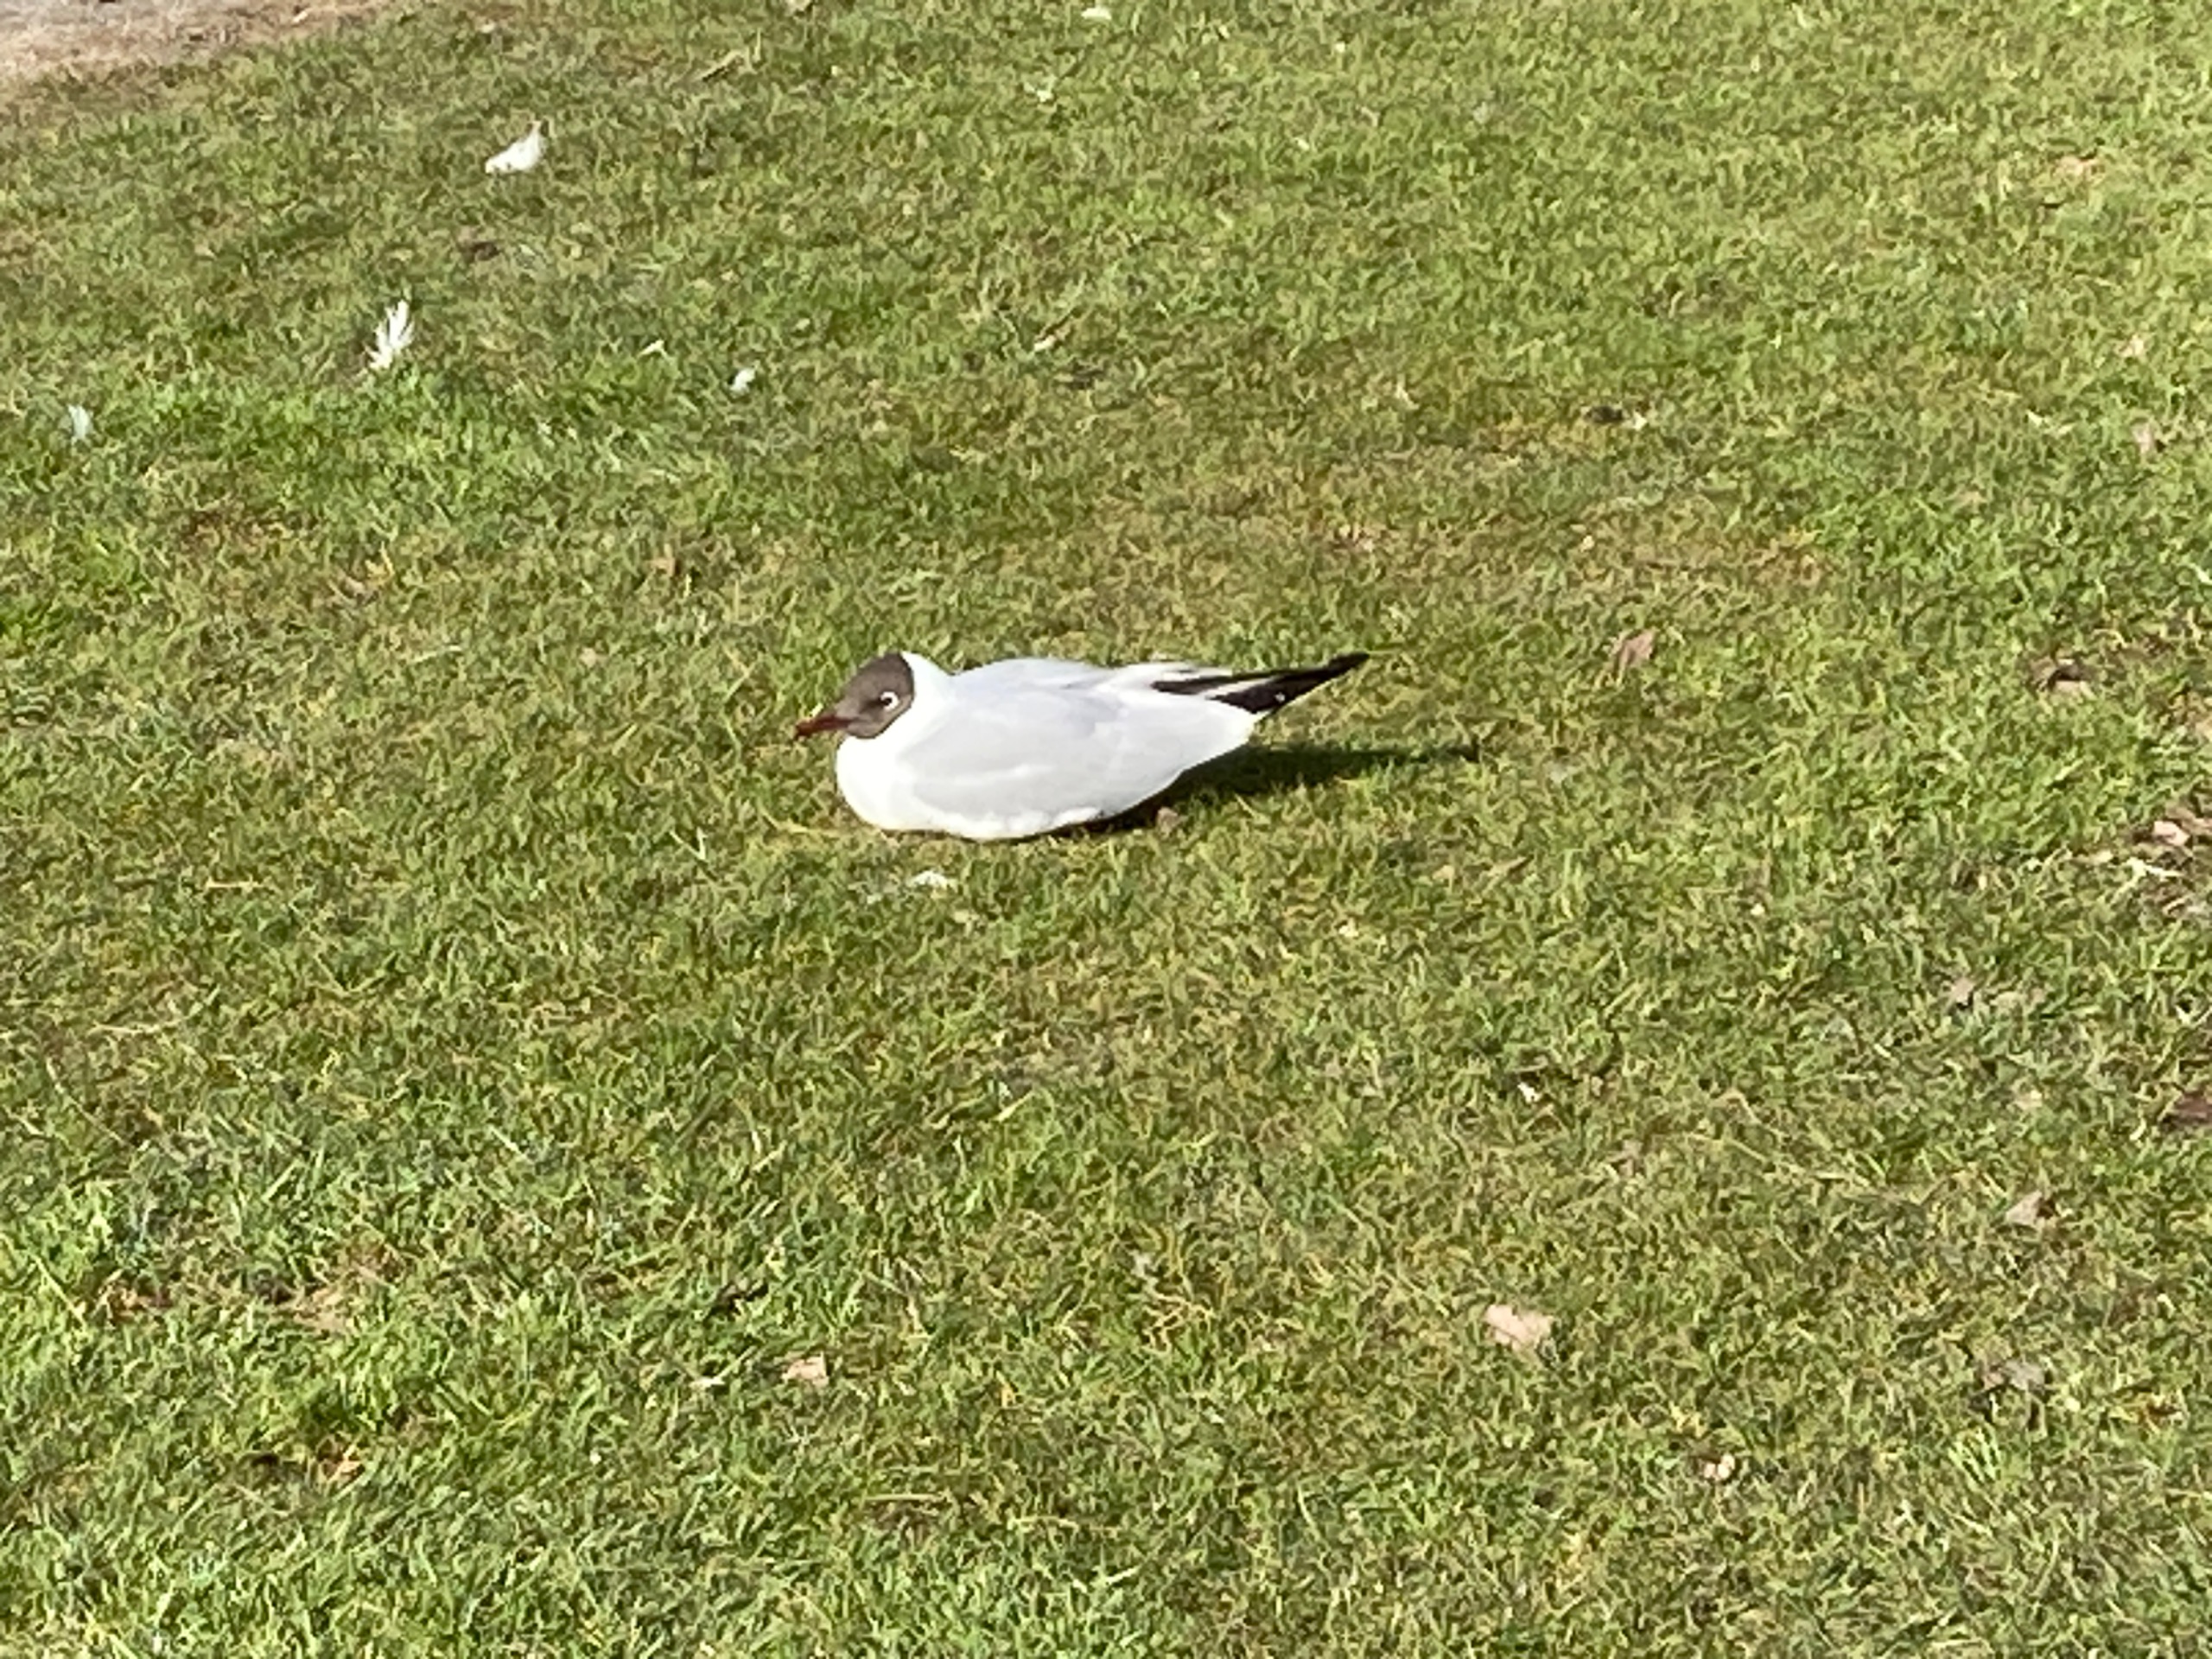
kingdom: Animalia
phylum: Chordata
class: Aves
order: Charadriiformes
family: Laridae
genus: Chroicocephalus
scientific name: Chroicocephalus ridibundus
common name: Hættemåge
